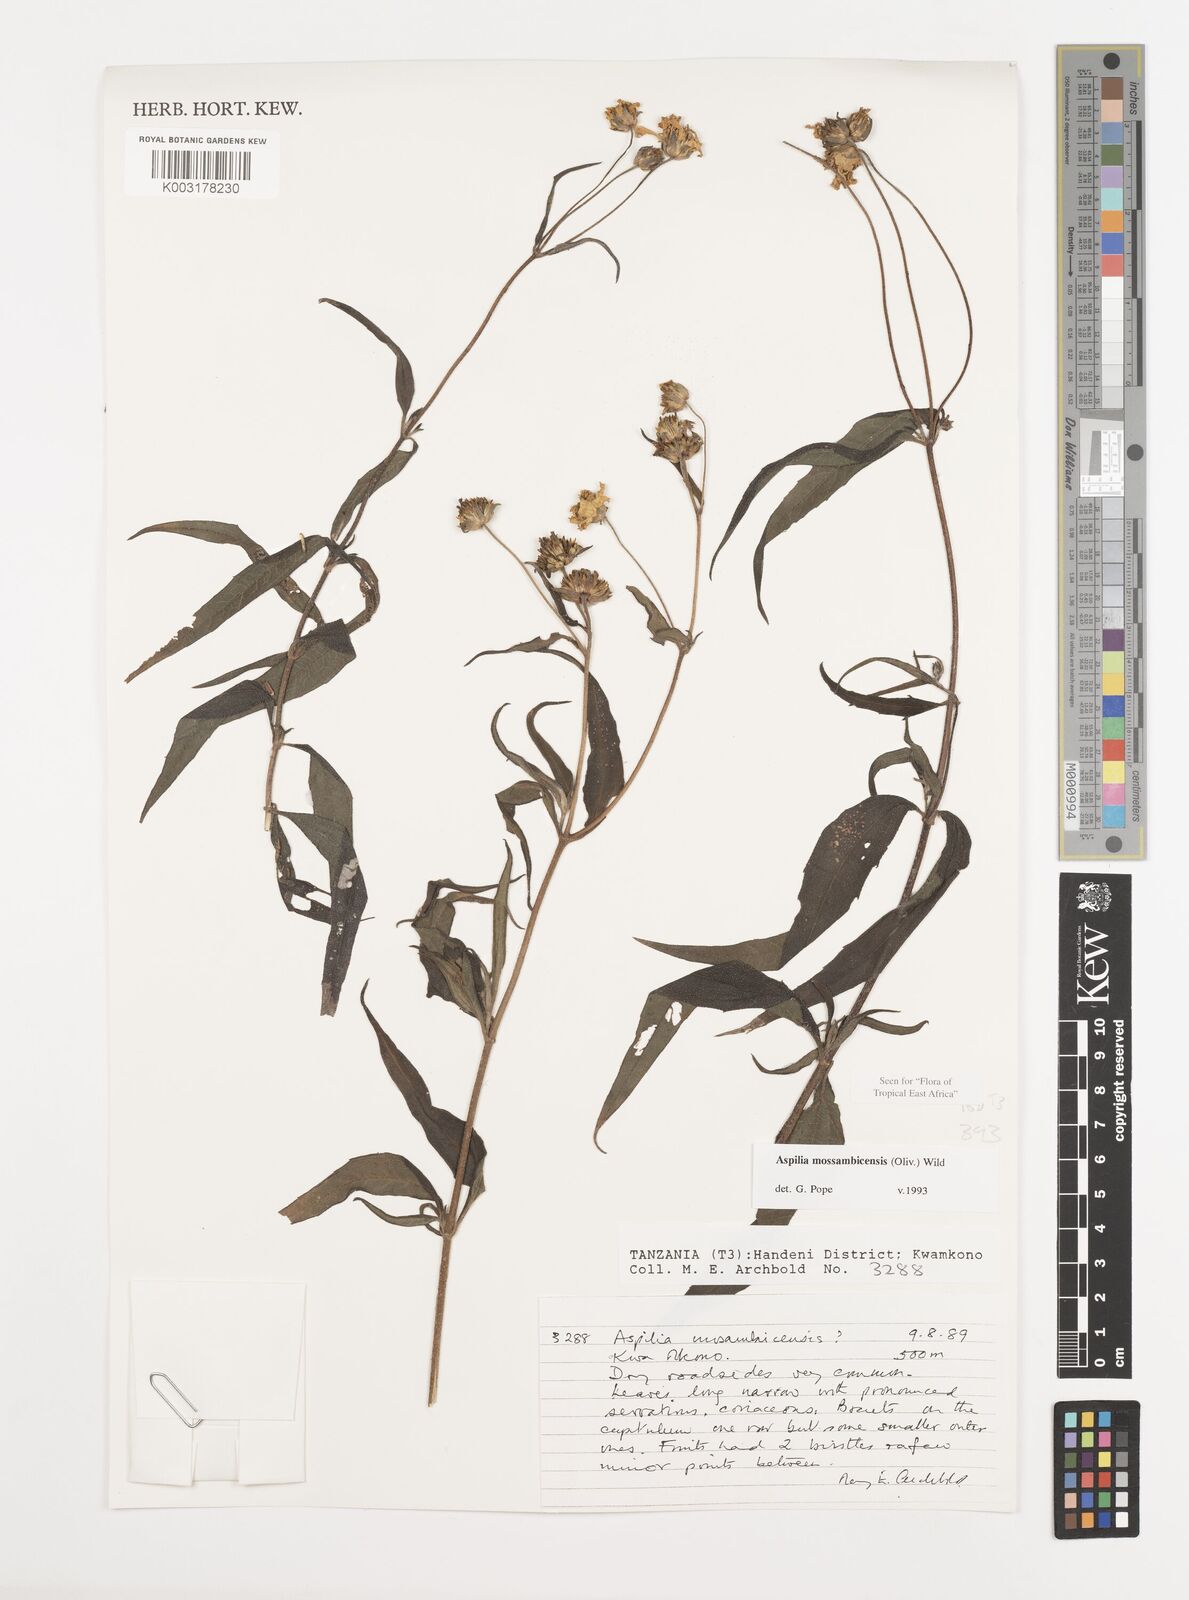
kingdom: Plantae
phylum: Tracheophyta
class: Magnoliopsida
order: Asterales
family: Asteraceae
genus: Aspilia
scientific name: Aspilia mossambicensis
